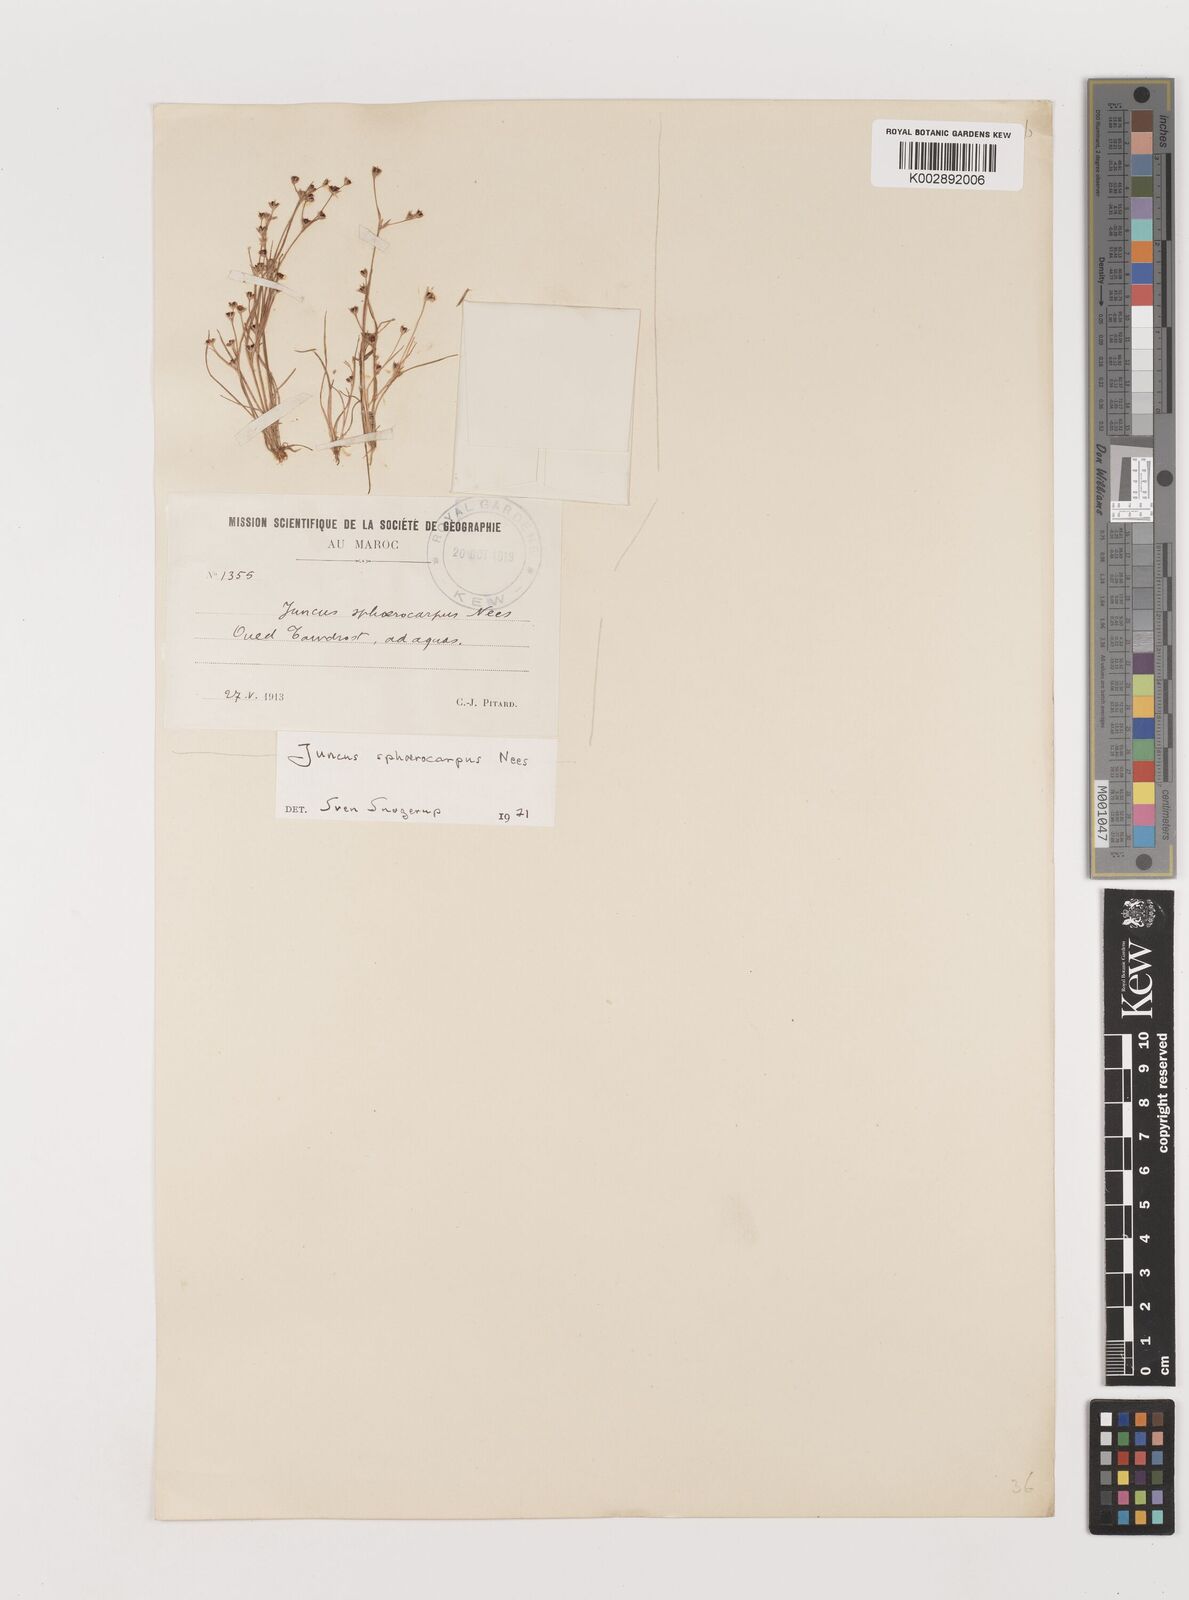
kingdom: Plantae
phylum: Tracheophyta
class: Liliopsida
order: Poales
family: Juncaceae
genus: Juncus
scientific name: Juncus sphaerocarpus
